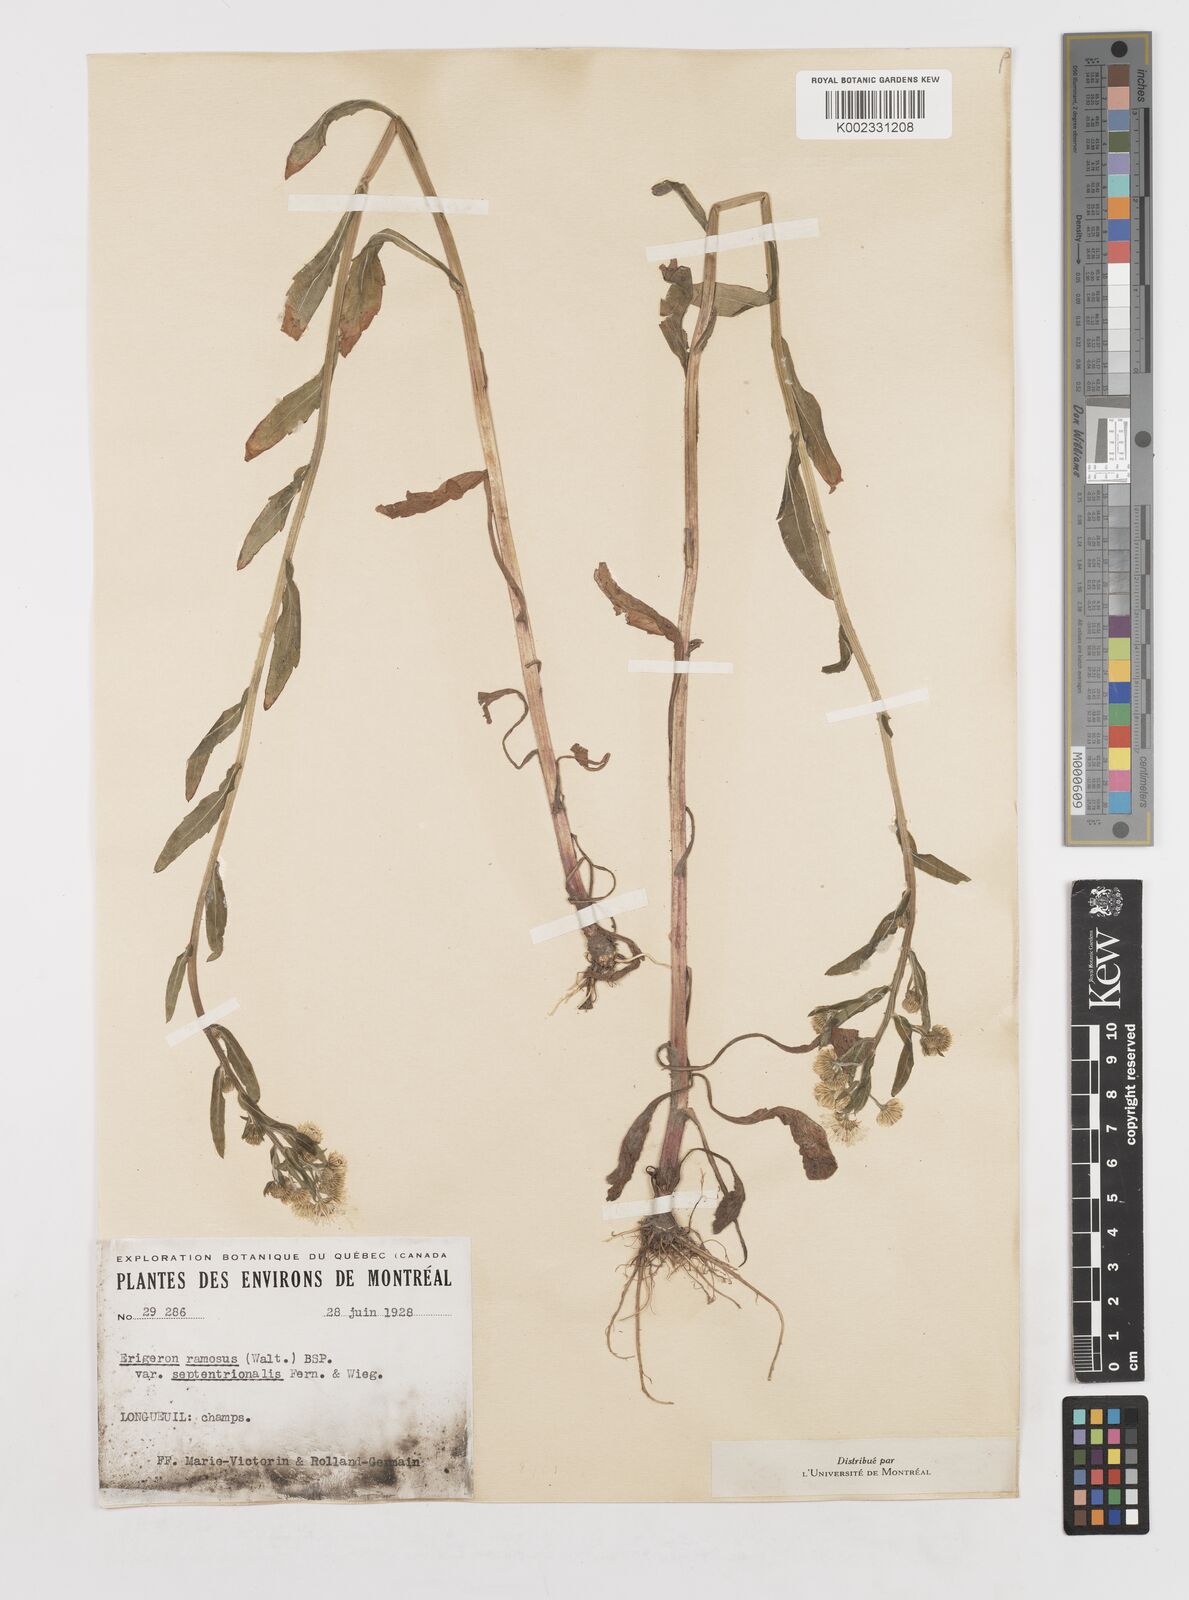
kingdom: Plantae
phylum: Tracheophyta
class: Magnoliopsida
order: Asterales
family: Asteraceae
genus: Erigeron
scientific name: Erigeron annuus
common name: Tall fleabane
